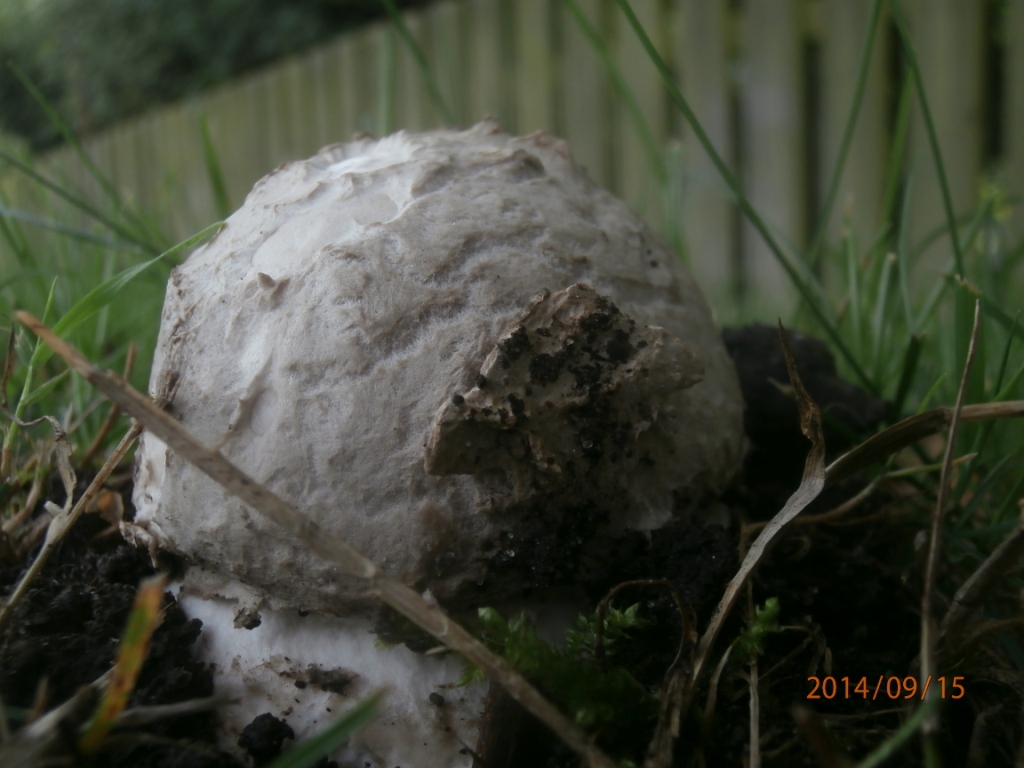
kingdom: Fungi
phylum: Basidiomycota
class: Agaricomycetes
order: Agaricales
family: Amanitaceae
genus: Amanita
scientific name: Amanita
